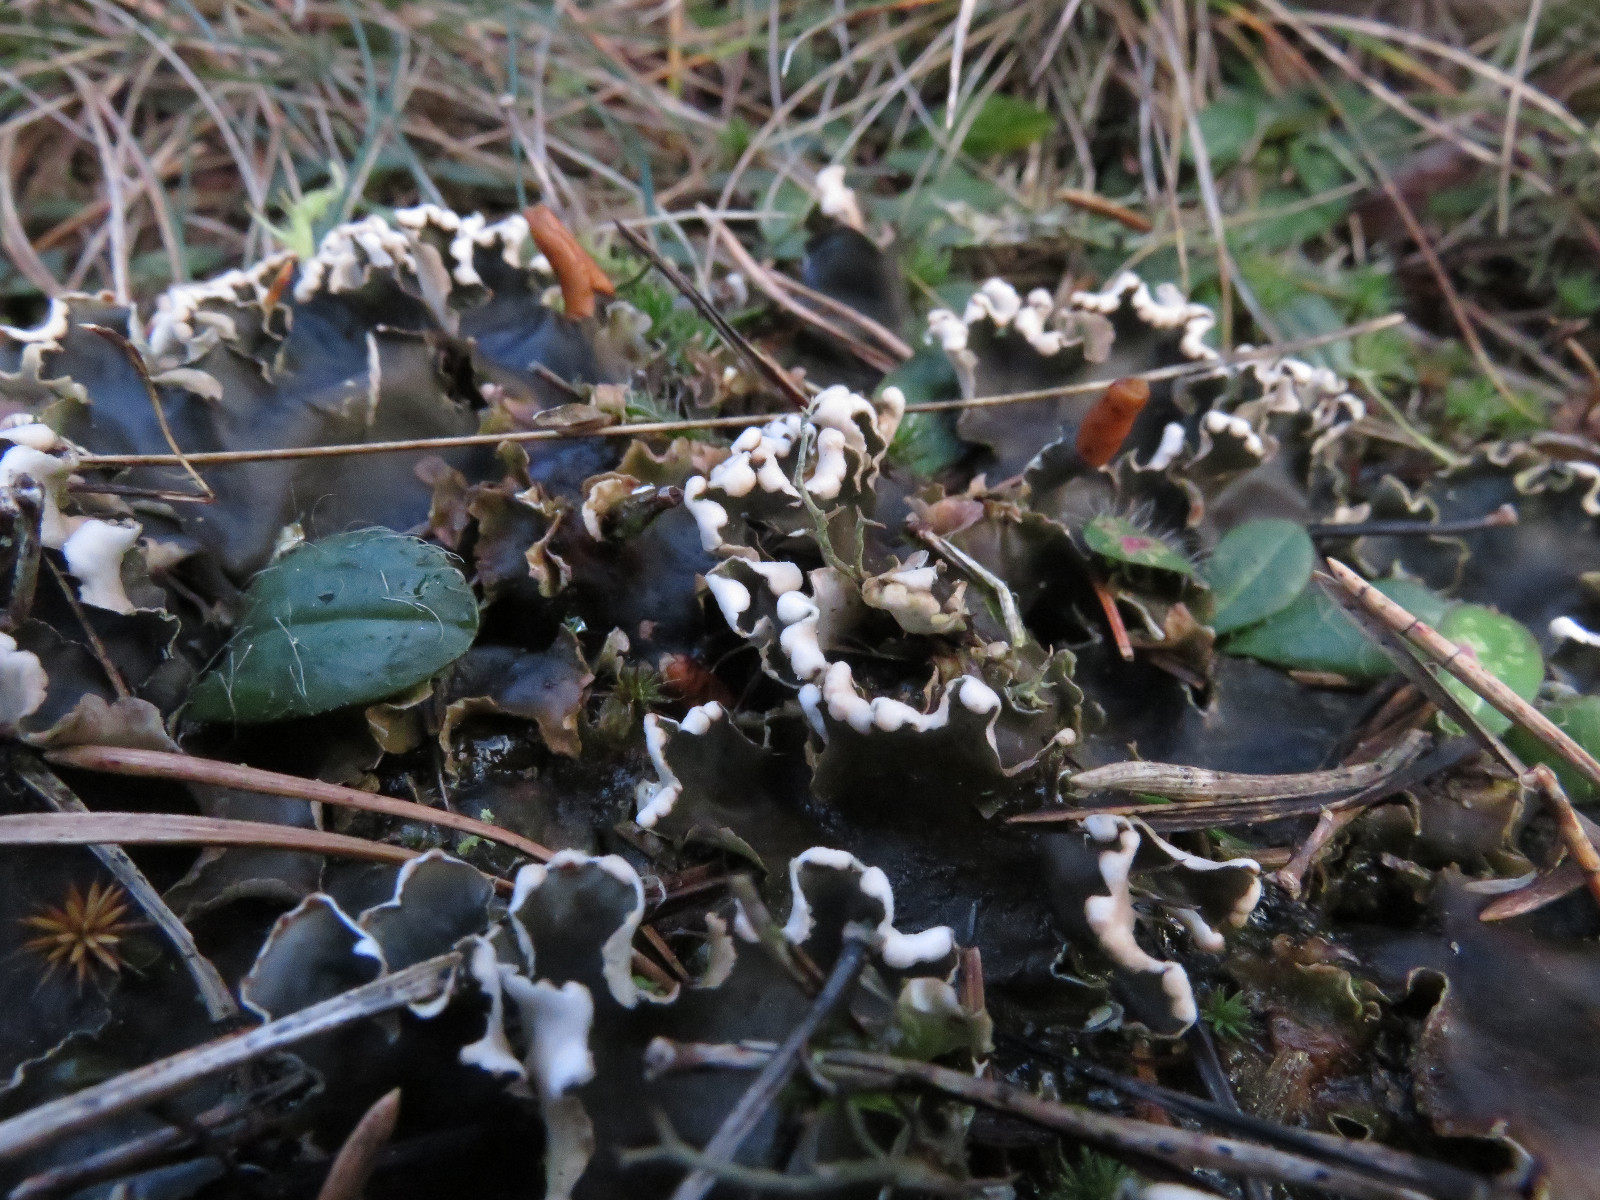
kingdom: Fungi
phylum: Ascomycota
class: Lecanoromycetes
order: Peltigerales
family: Peltigeraceae
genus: Peltigera
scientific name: Peltigera hymenina
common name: hinde-skjoldlav
